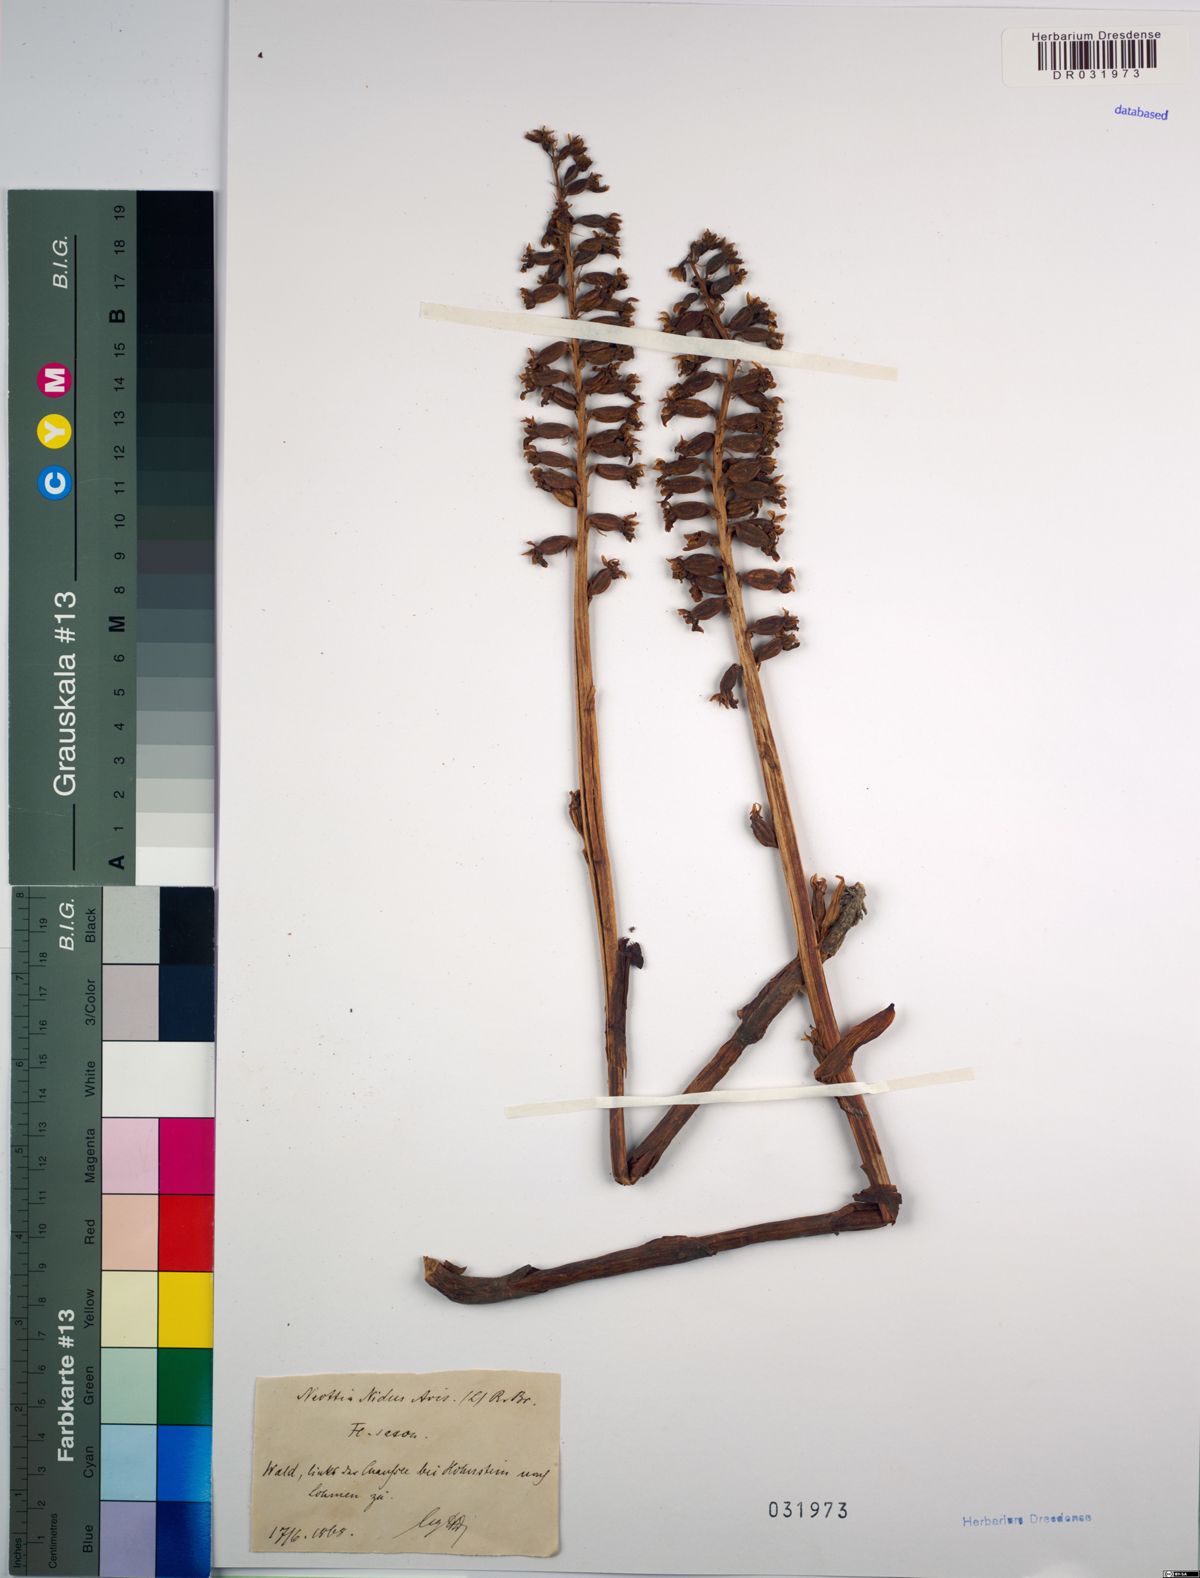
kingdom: Plantae
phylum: Tracheophyta
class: Liliopsida
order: Asparagales
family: Orchidaceae
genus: Neottia
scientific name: Neottia nidus-avis
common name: Bird's-nest orchid
